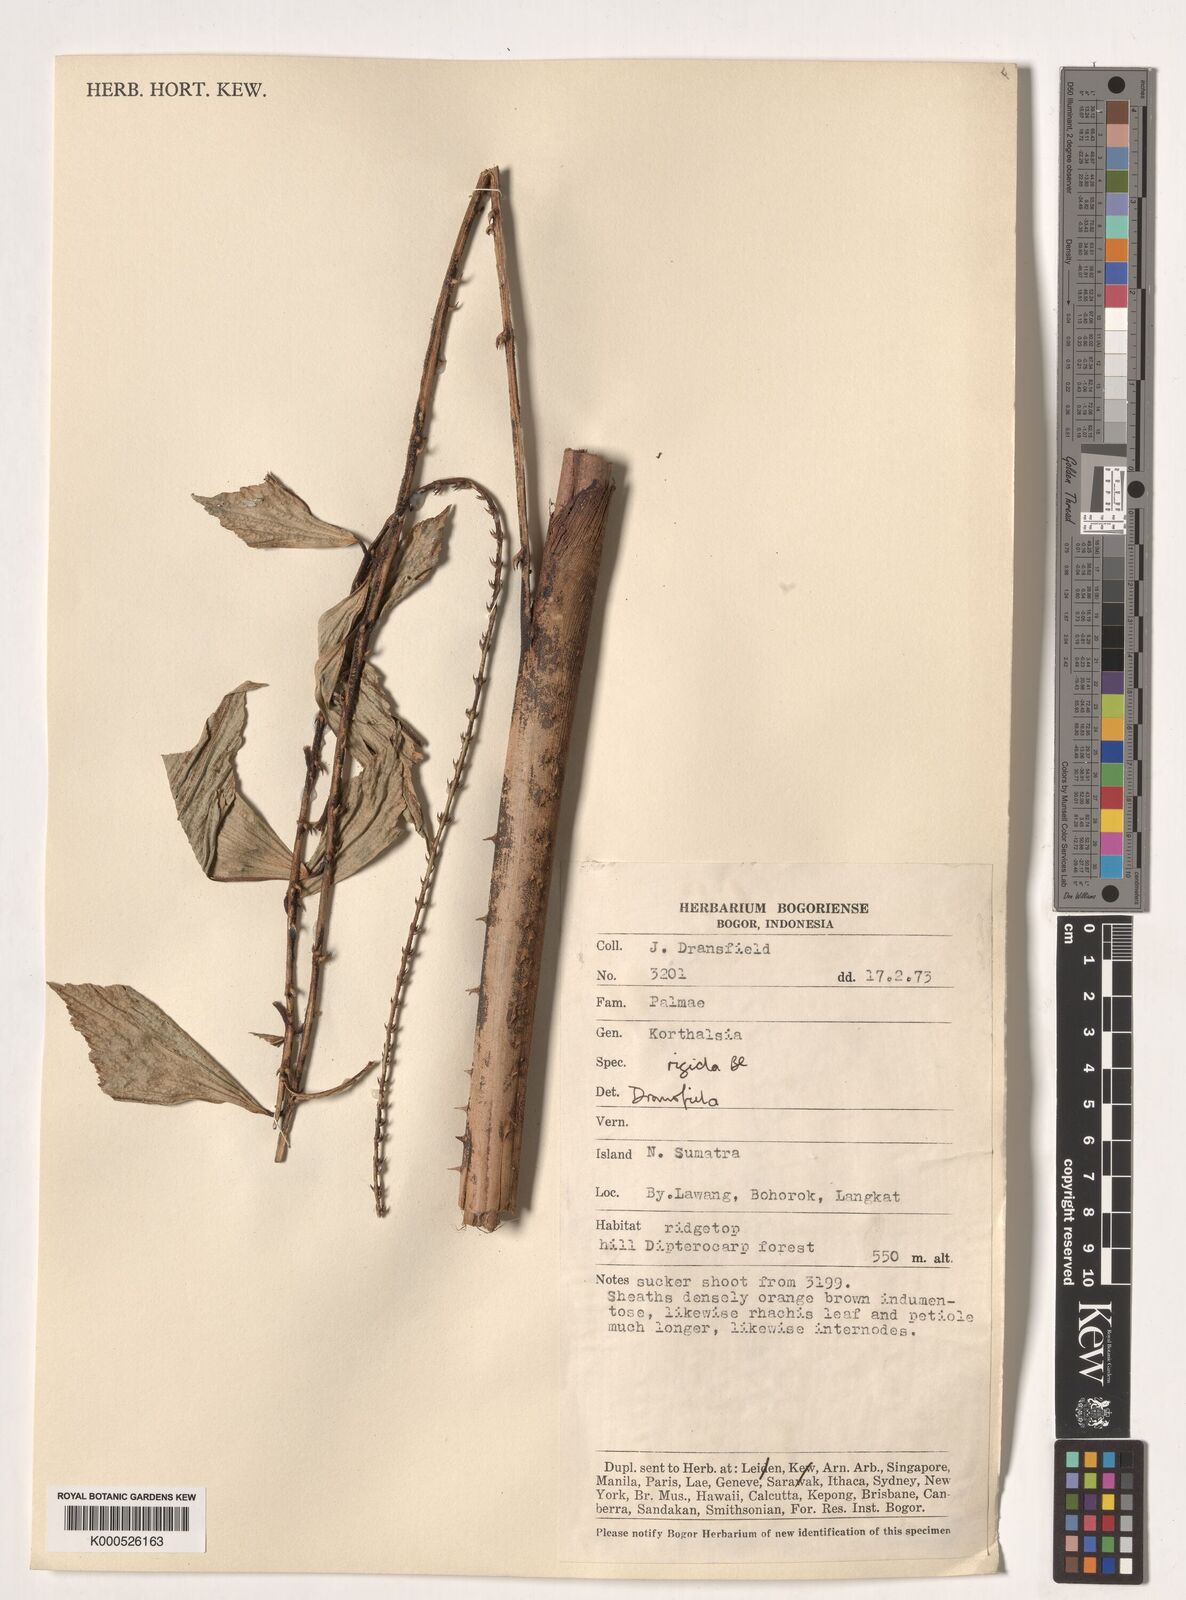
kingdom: Plantae
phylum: Tracheophyta
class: Liliopsida
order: Arecales
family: Arecaceae
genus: Korthalsia
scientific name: Korthalsia rigida
